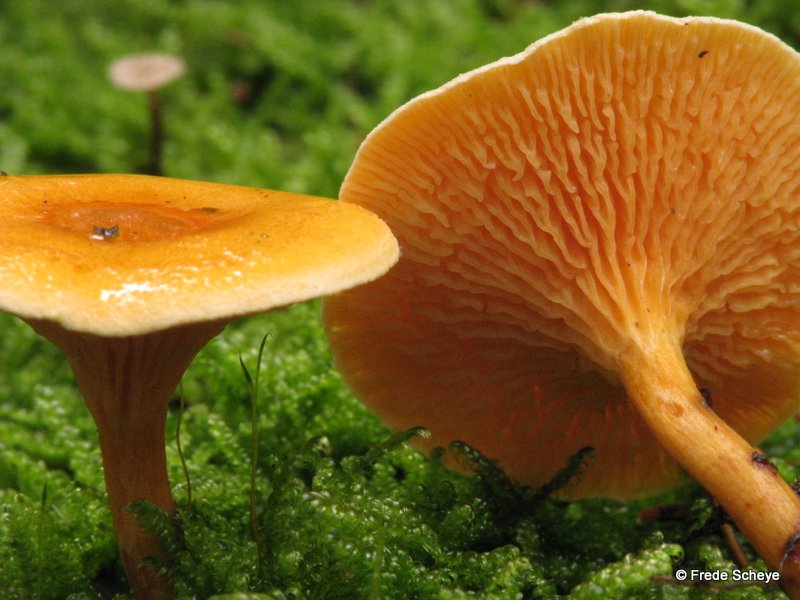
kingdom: Fungi
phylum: Basidiomycota
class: Agaricomycetes
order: Boletales
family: Hygrophoropsidaceae
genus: Hygrophoropsis
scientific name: Hygrophoropsis aurantiaca
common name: almindelig orangekantarel
